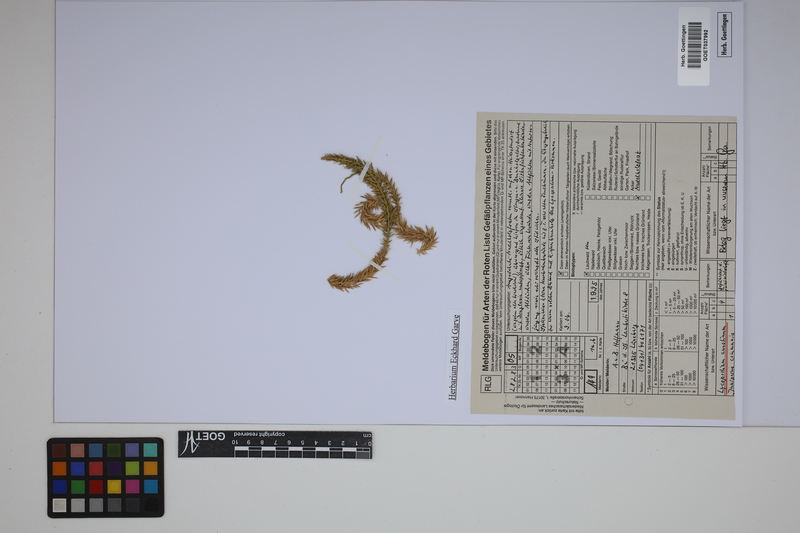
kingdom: Plantae
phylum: Tracheophyta
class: Lycopodiopsida
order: Lycopodiales
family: Lycopodiaceae
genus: Spinulum
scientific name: Spinulum annotinum
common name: Interrupted club-moss
